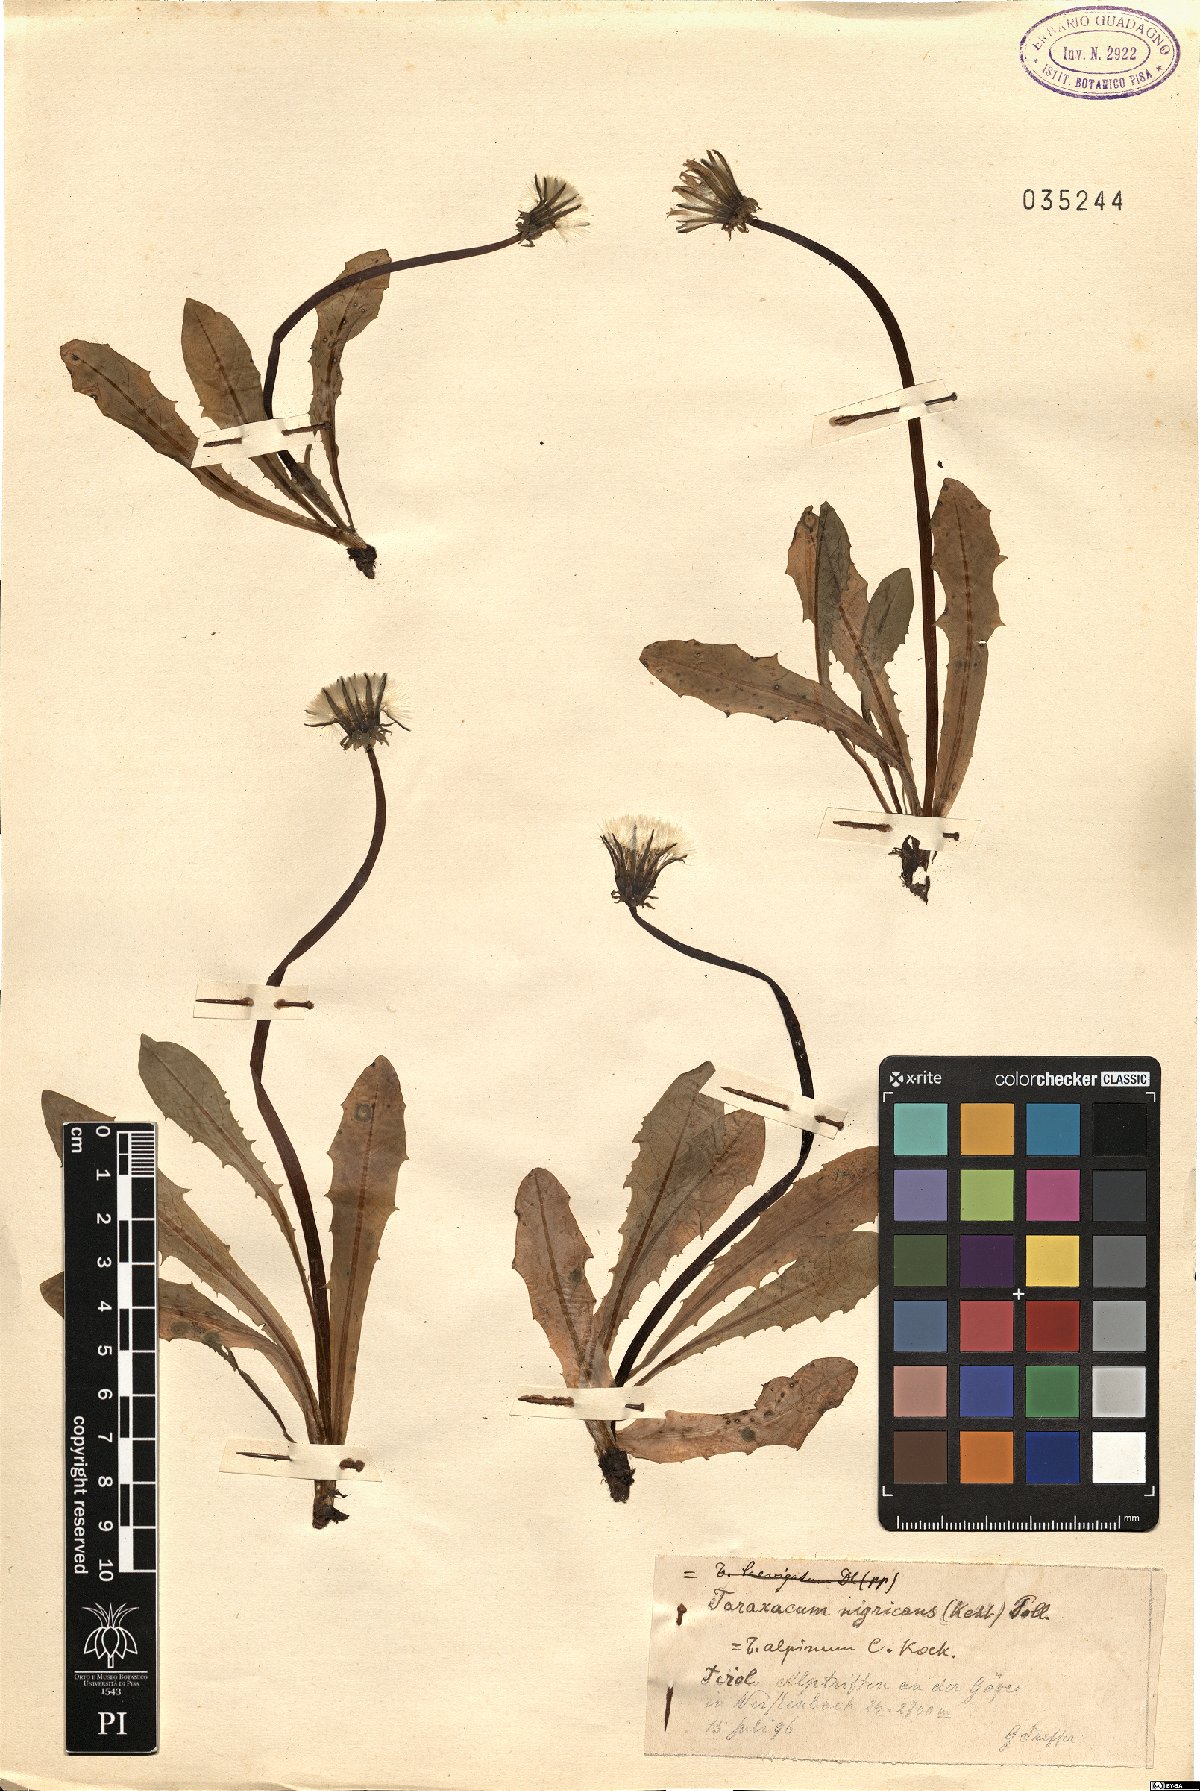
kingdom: Plantae
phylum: Tracheophyta
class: Magnoliopsida
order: Asterales
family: Asteraceae
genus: Taraxacum
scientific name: Taraxacum nigricans
